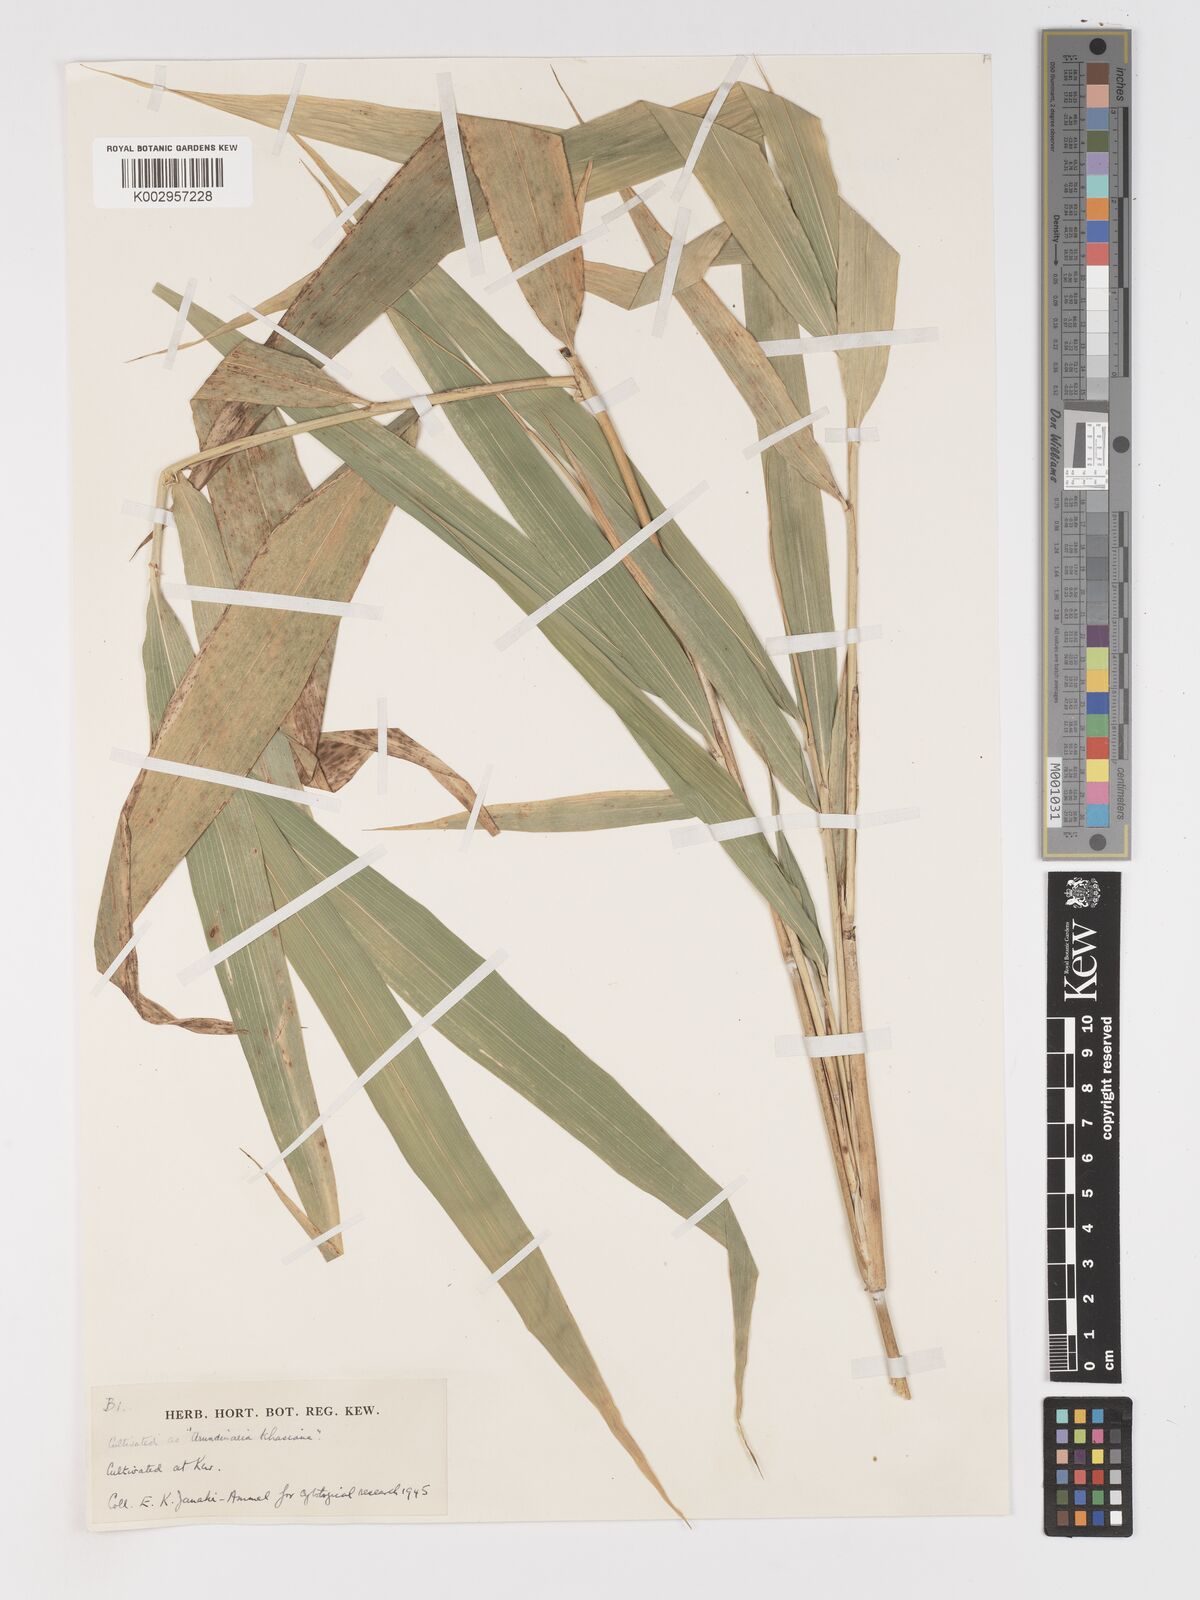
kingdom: Plantae
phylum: Tracheophyta
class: Liliopsida
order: Poales
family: Poaceae
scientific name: Poaceae
